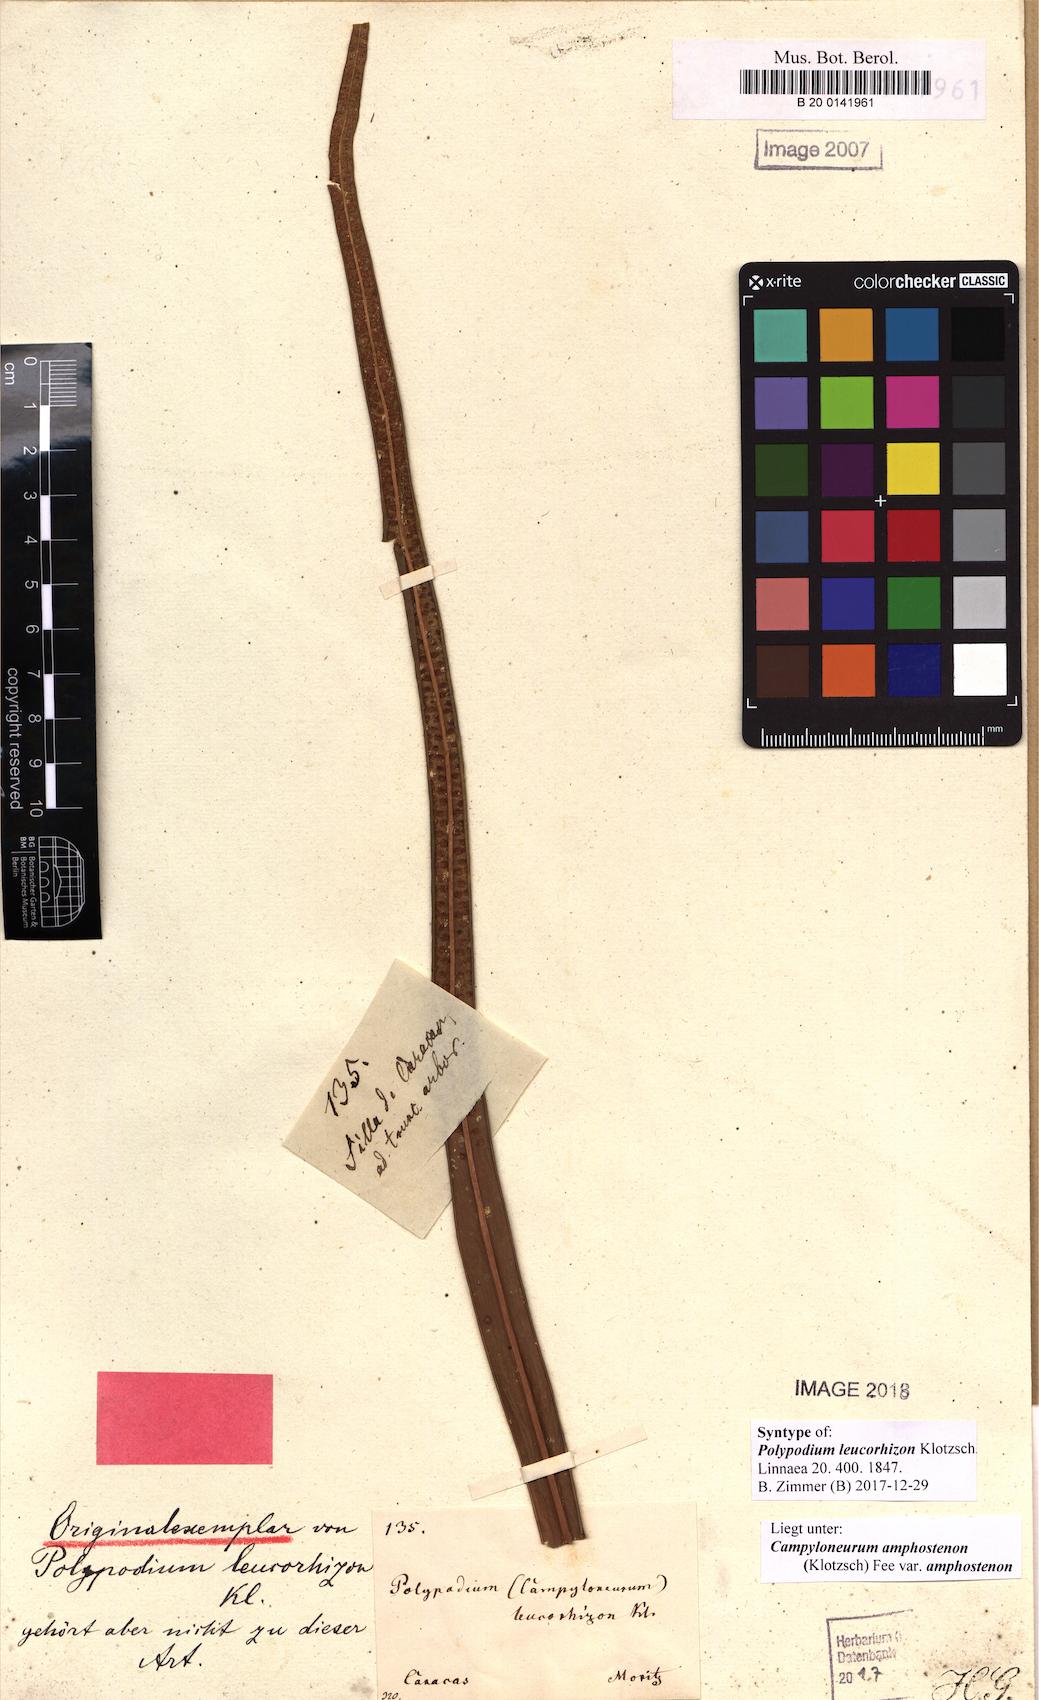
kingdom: Plantae
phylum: Tracheophyta
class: Polypodiopsida
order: Polypodiales
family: Polypodiaceae
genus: Campyloneurum
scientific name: Campyloneurum amphostenon
